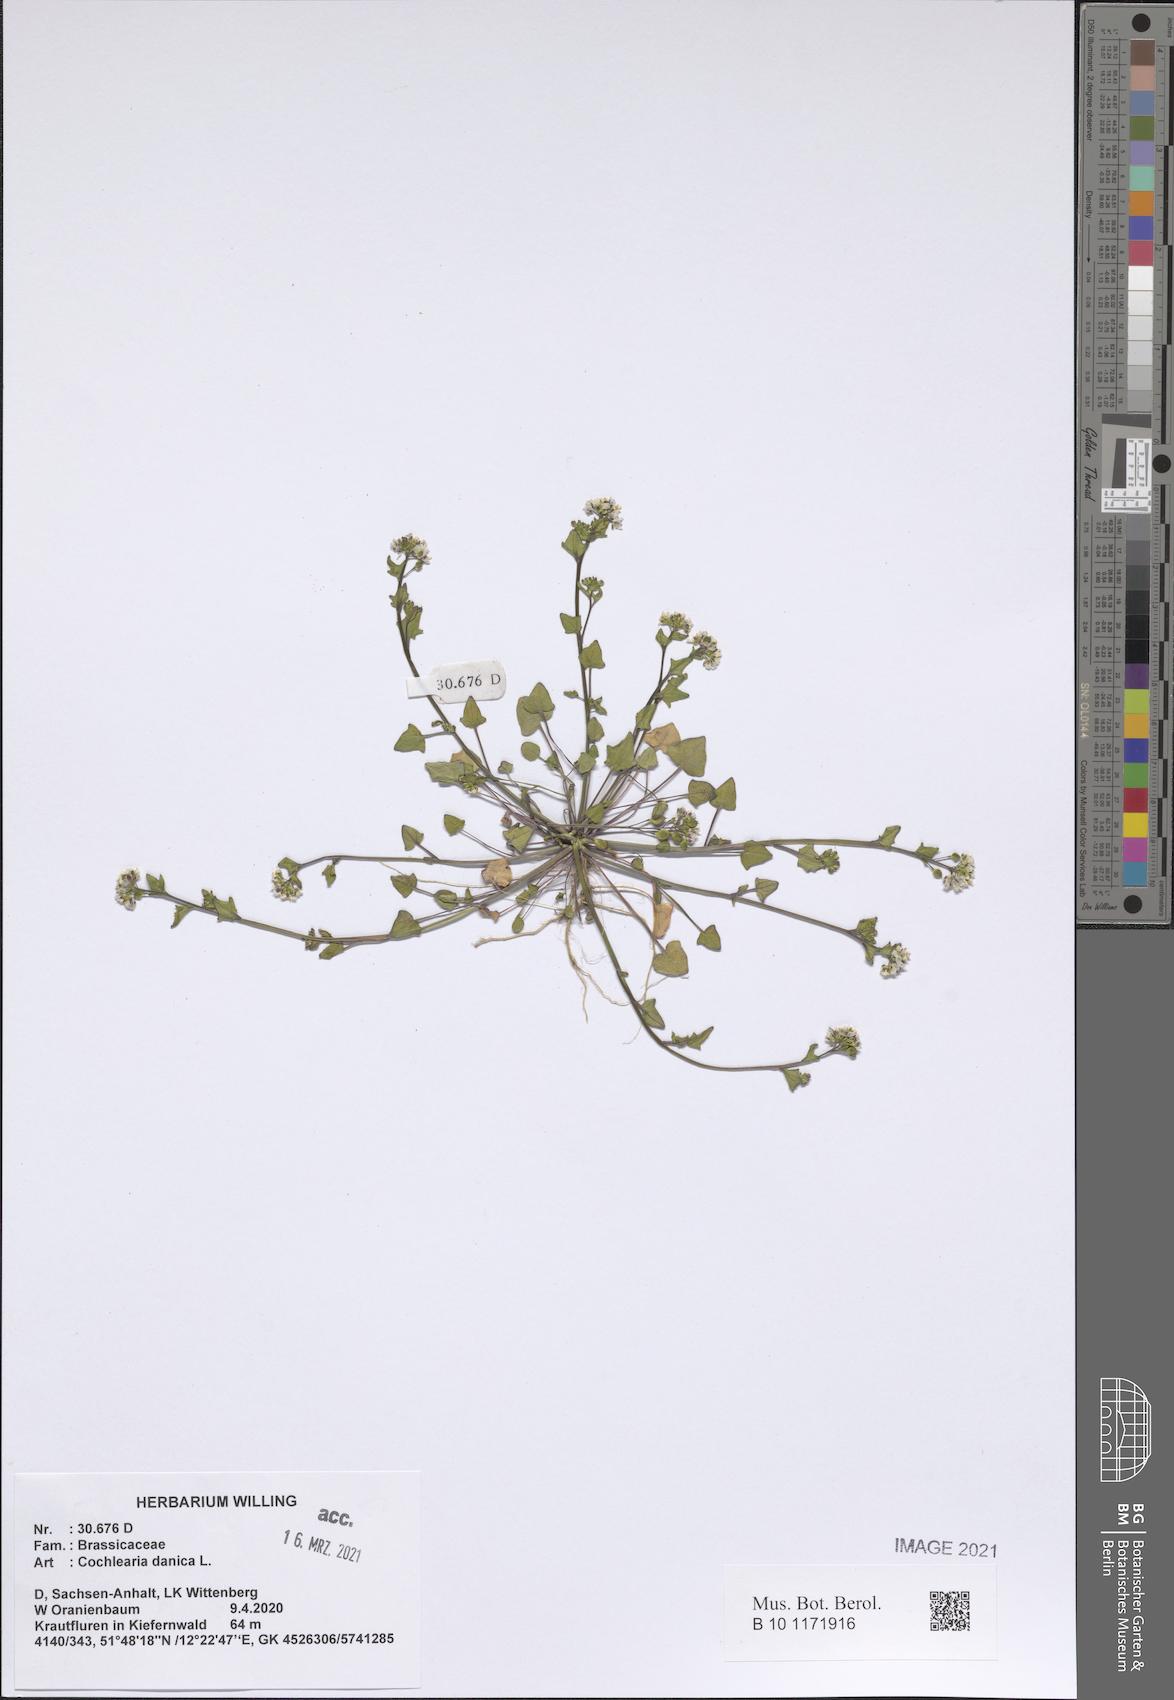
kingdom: Plantae
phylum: Tracheophyta
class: Magnoliopsida
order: Brassicales
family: Brassicaceae
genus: Cochlearia
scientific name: Cochlearia danica
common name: Early scurvygrass
